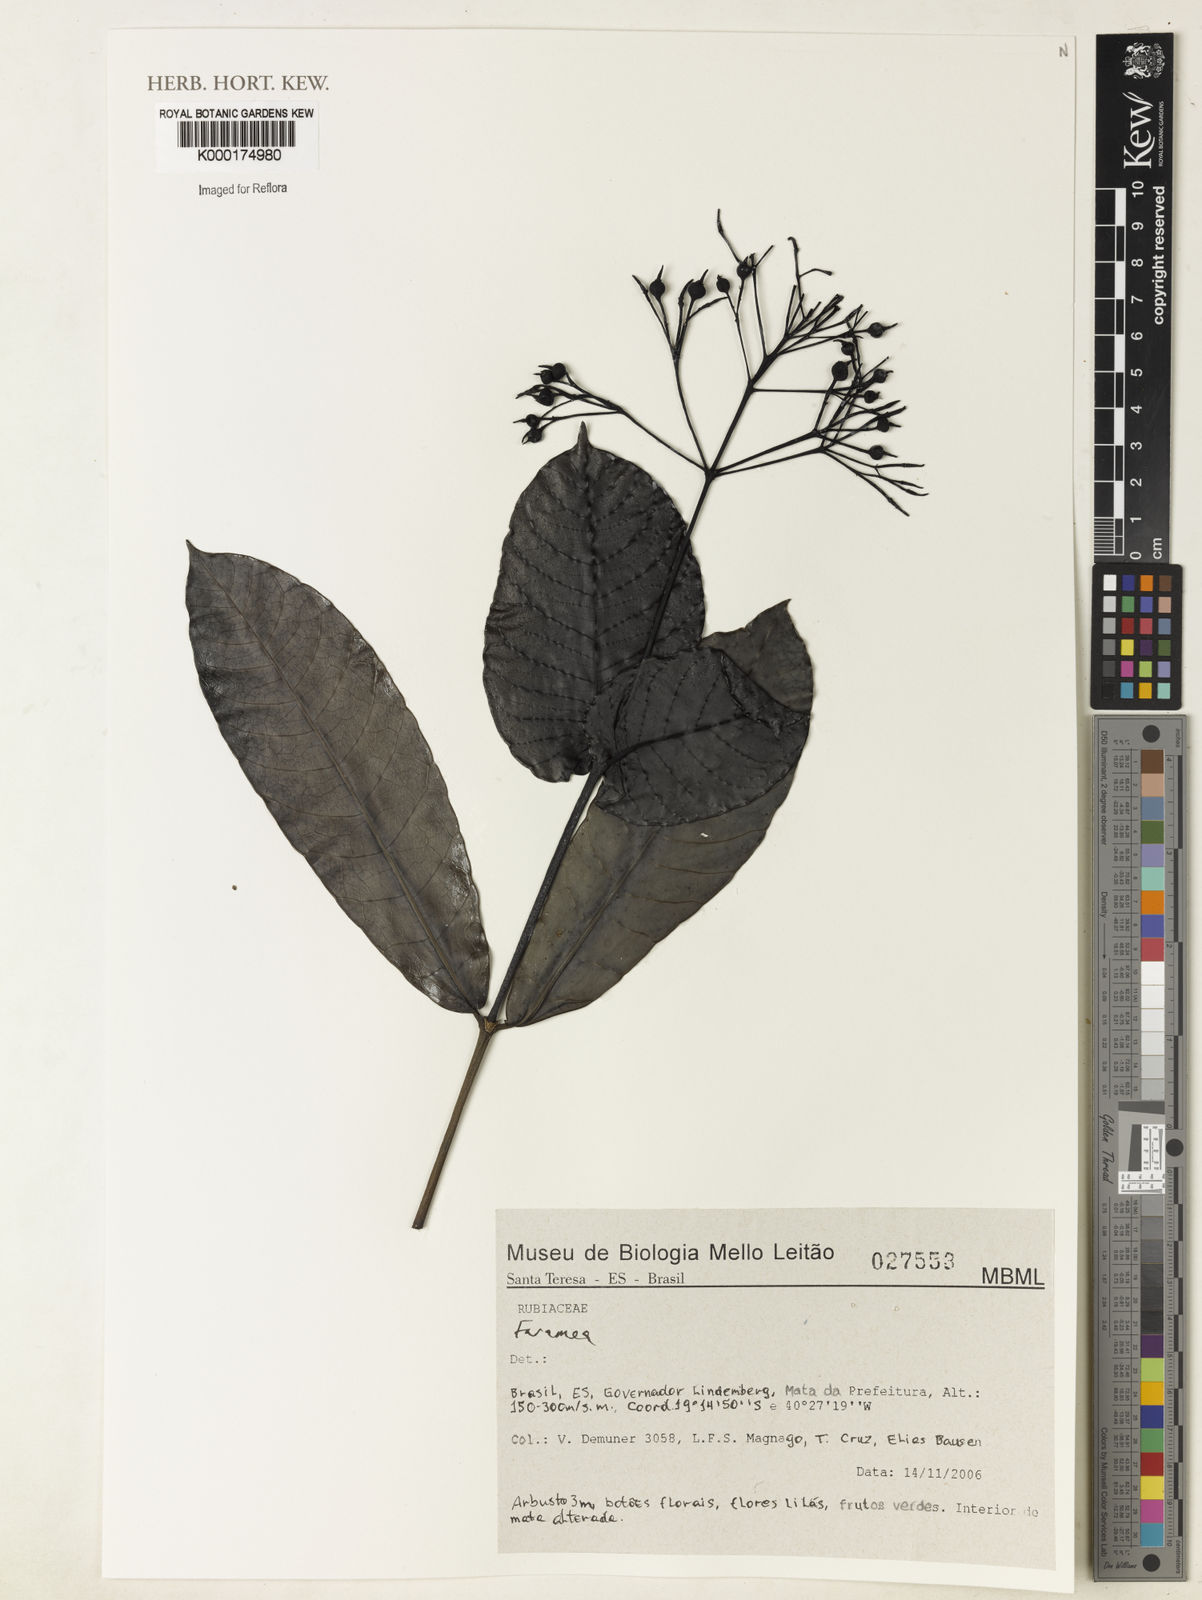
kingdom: Plantae
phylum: Tracheophyta
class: Magnoliopsida
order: Gentianales
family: Rubiaceae
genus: Faramea
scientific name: Faramea
